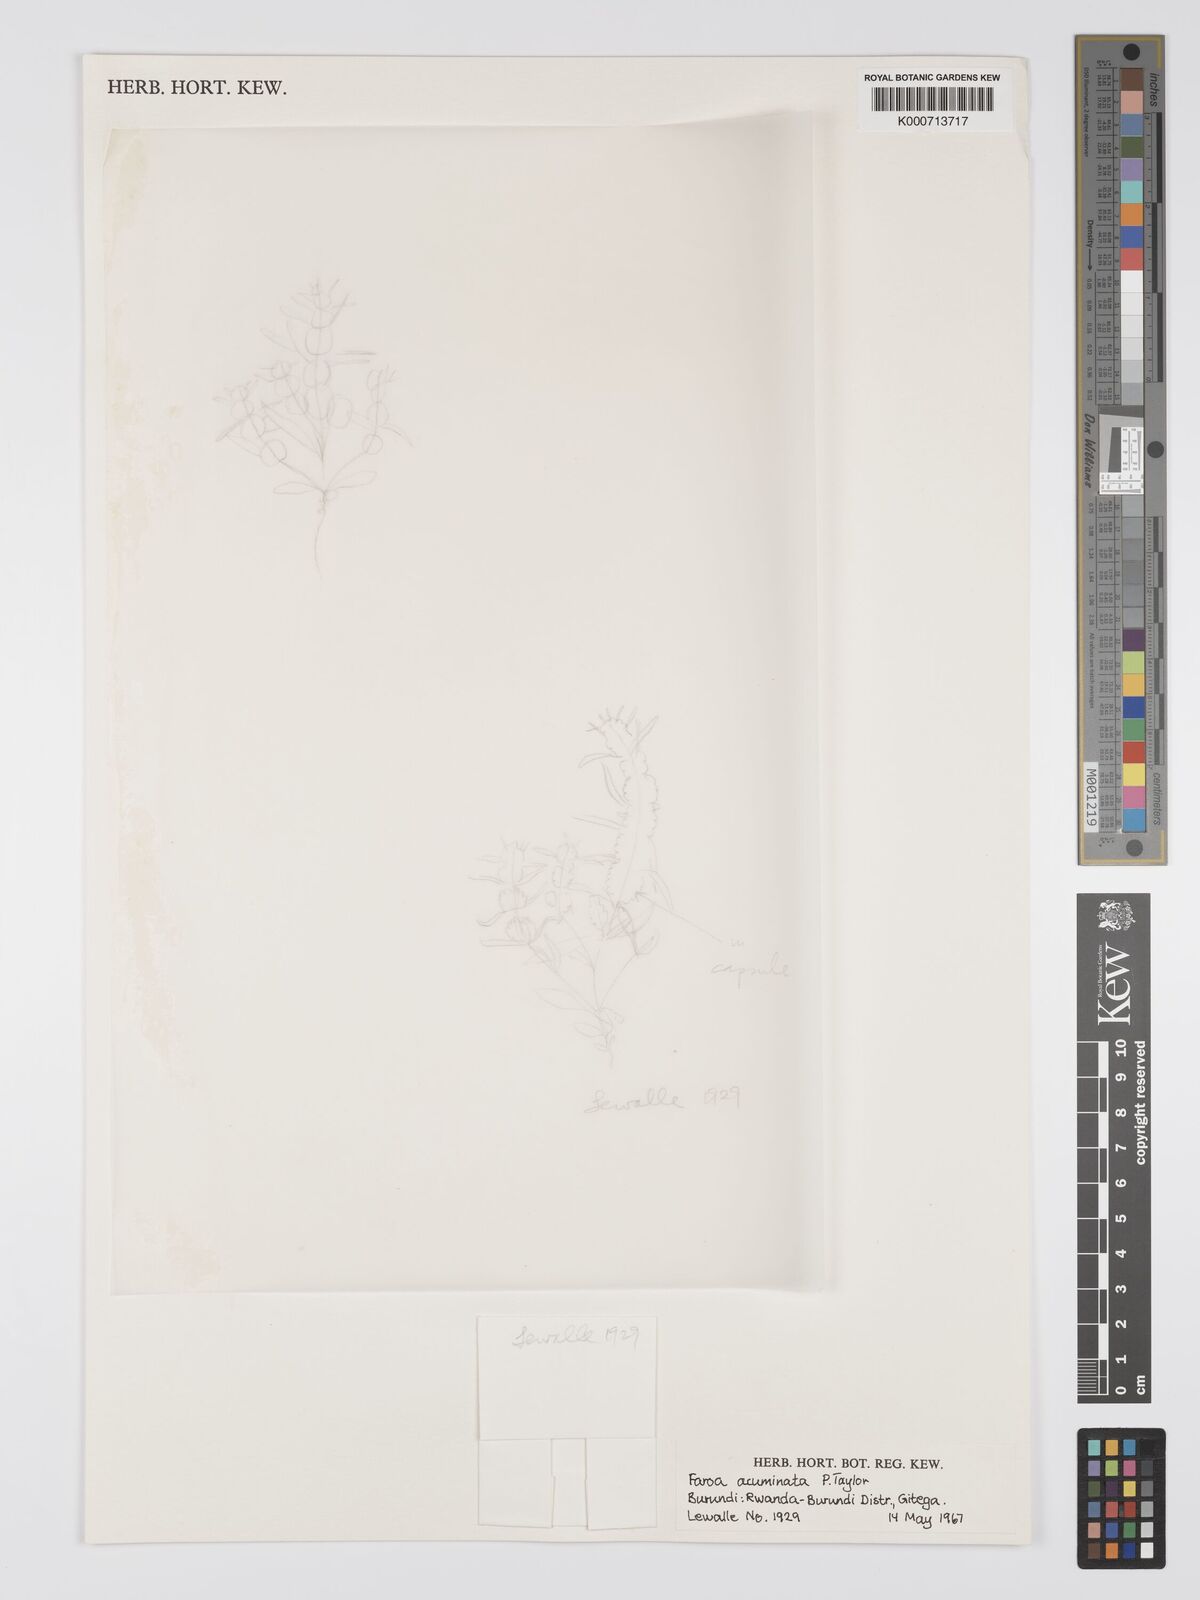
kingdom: Plantae
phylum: Tracheophyta
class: Magnoliopsida
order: Gentianales
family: Gentianaceae
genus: Faroa
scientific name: Faroa acuminata
